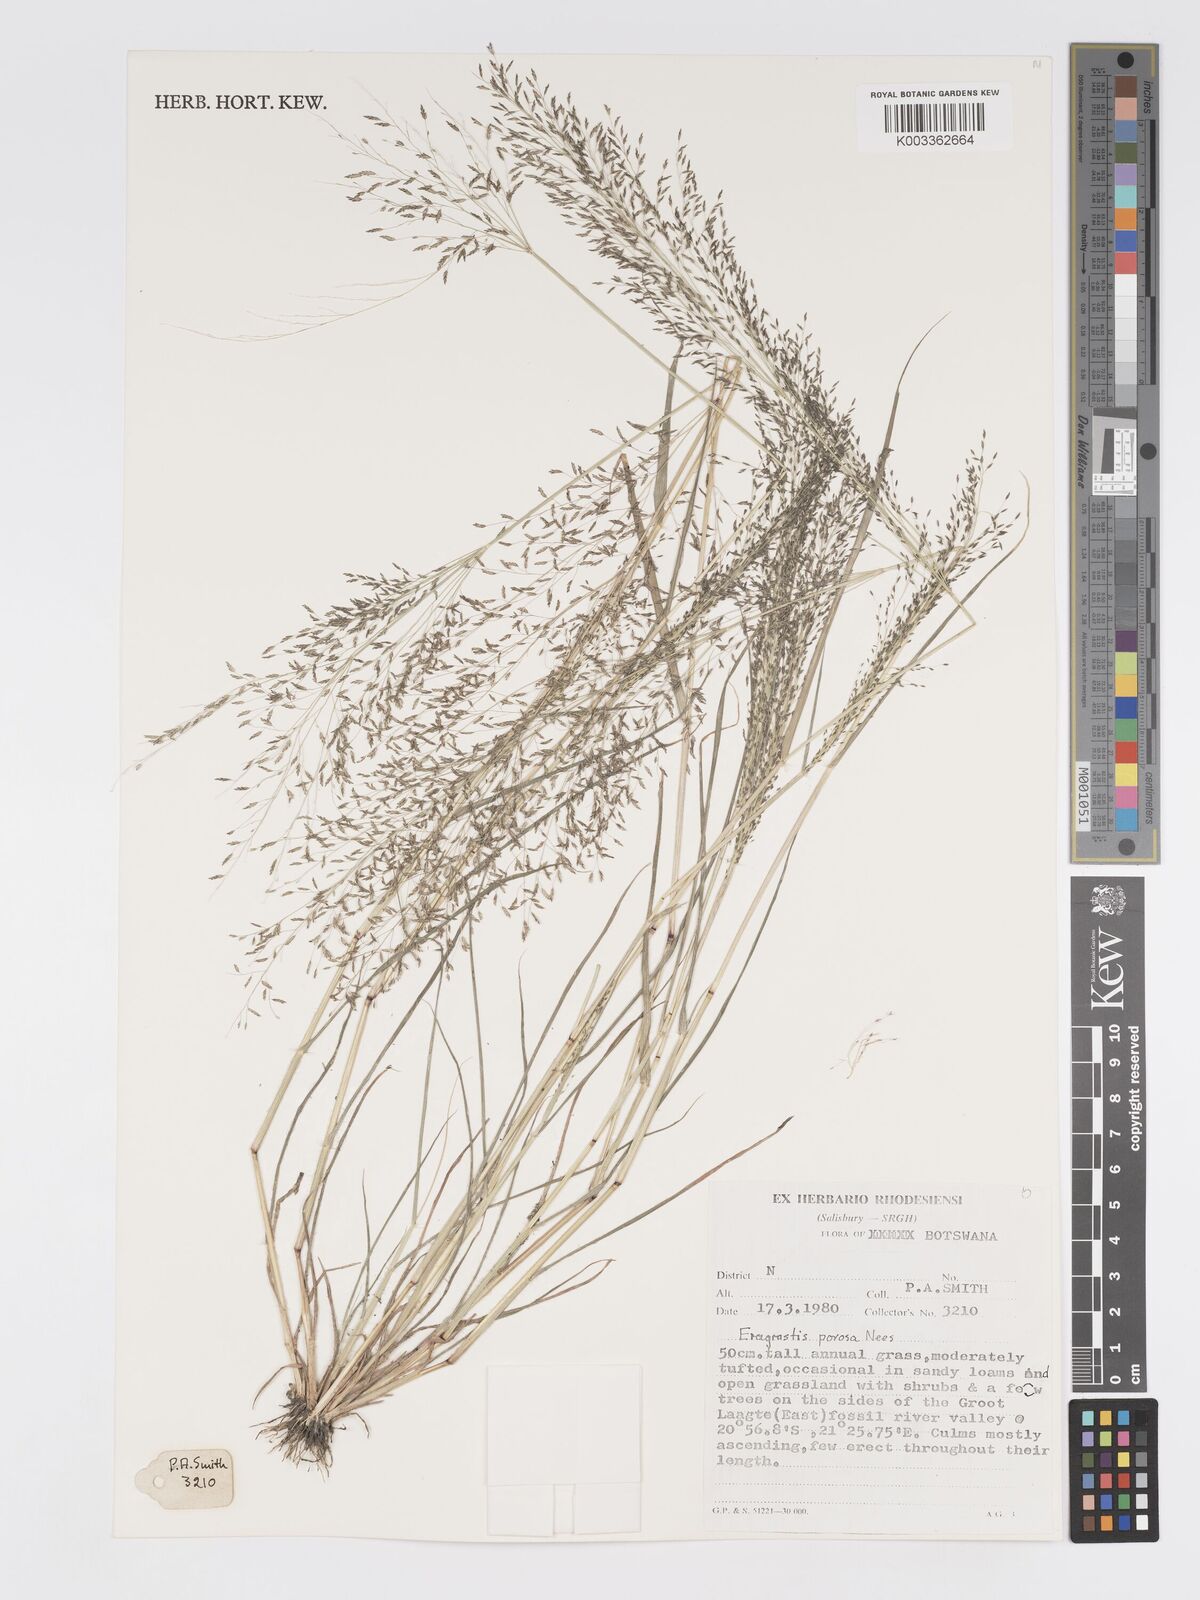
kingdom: Plantae
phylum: Tracheophyta
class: Liliopsida
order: Poales
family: Poaceae
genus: Eragrostis
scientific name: Eragrostis porosa
